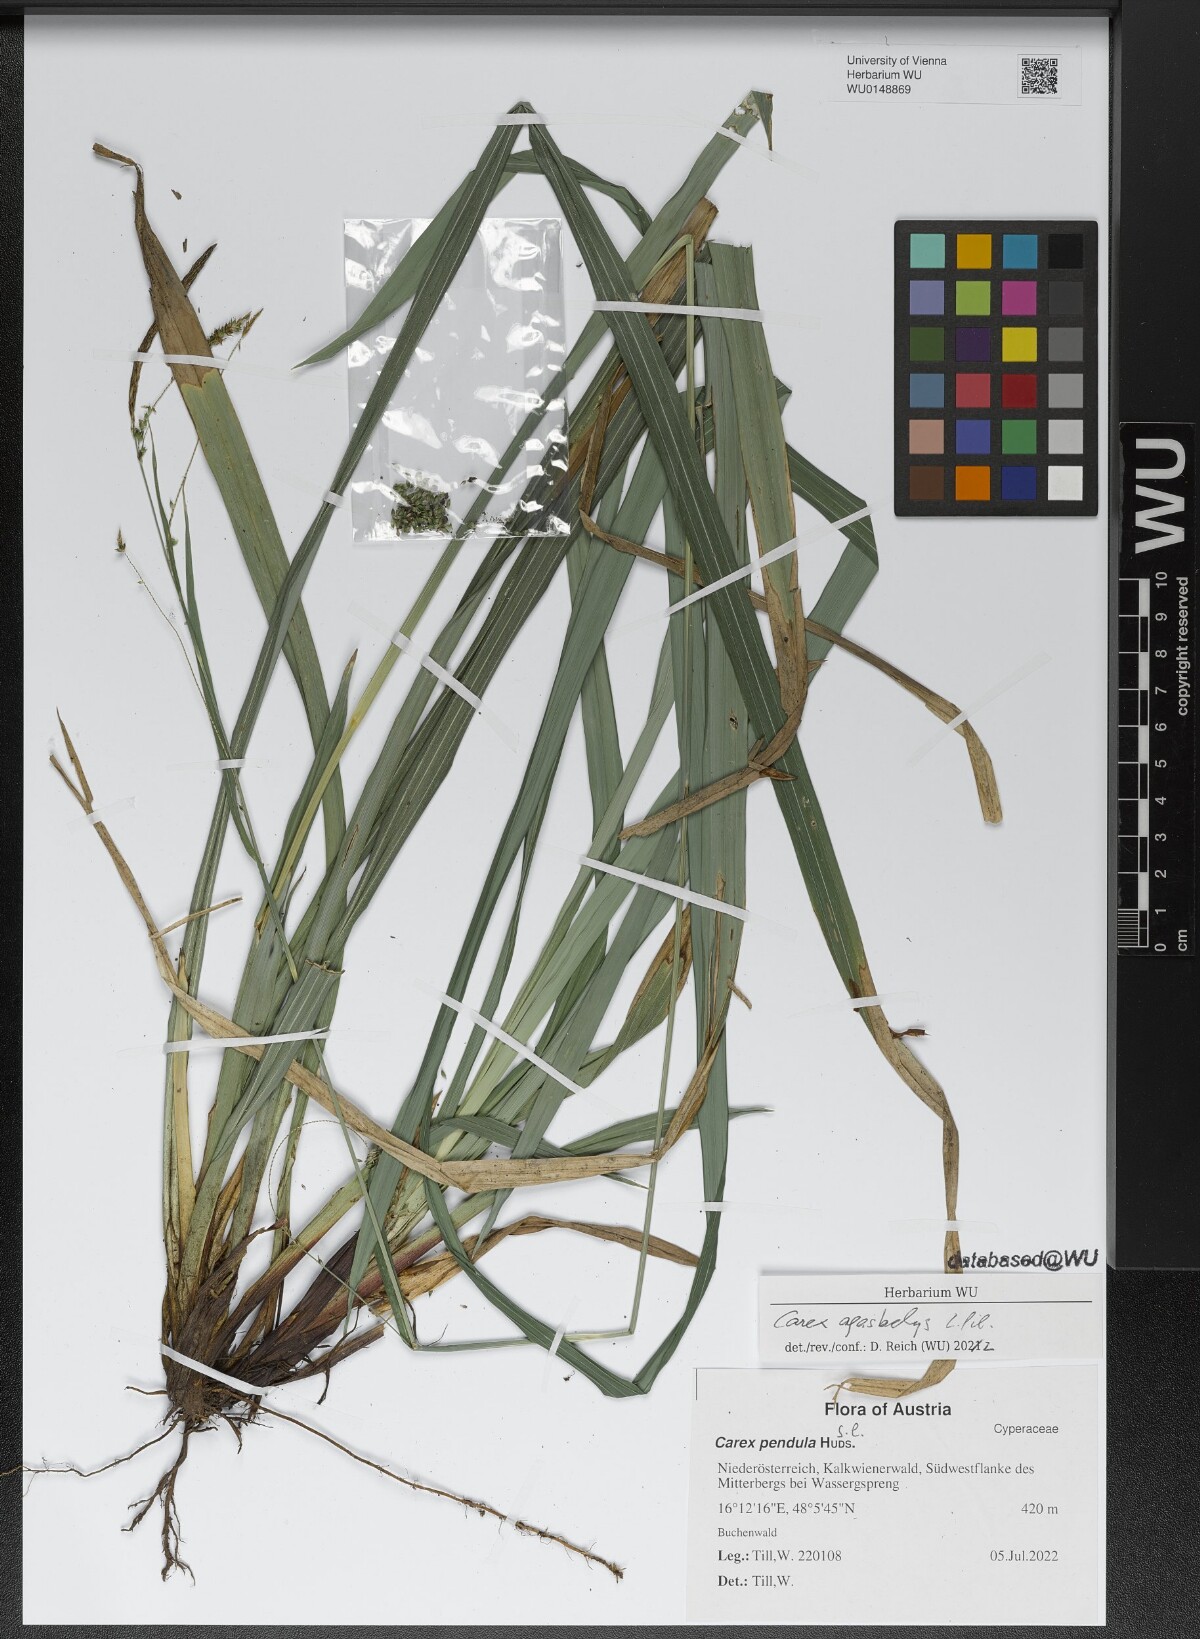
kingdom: Plantae
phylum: Tracheophyta
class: Liliopsida
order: Poales
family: Cyperaceae
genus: Carex
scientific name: Carex agastachys
